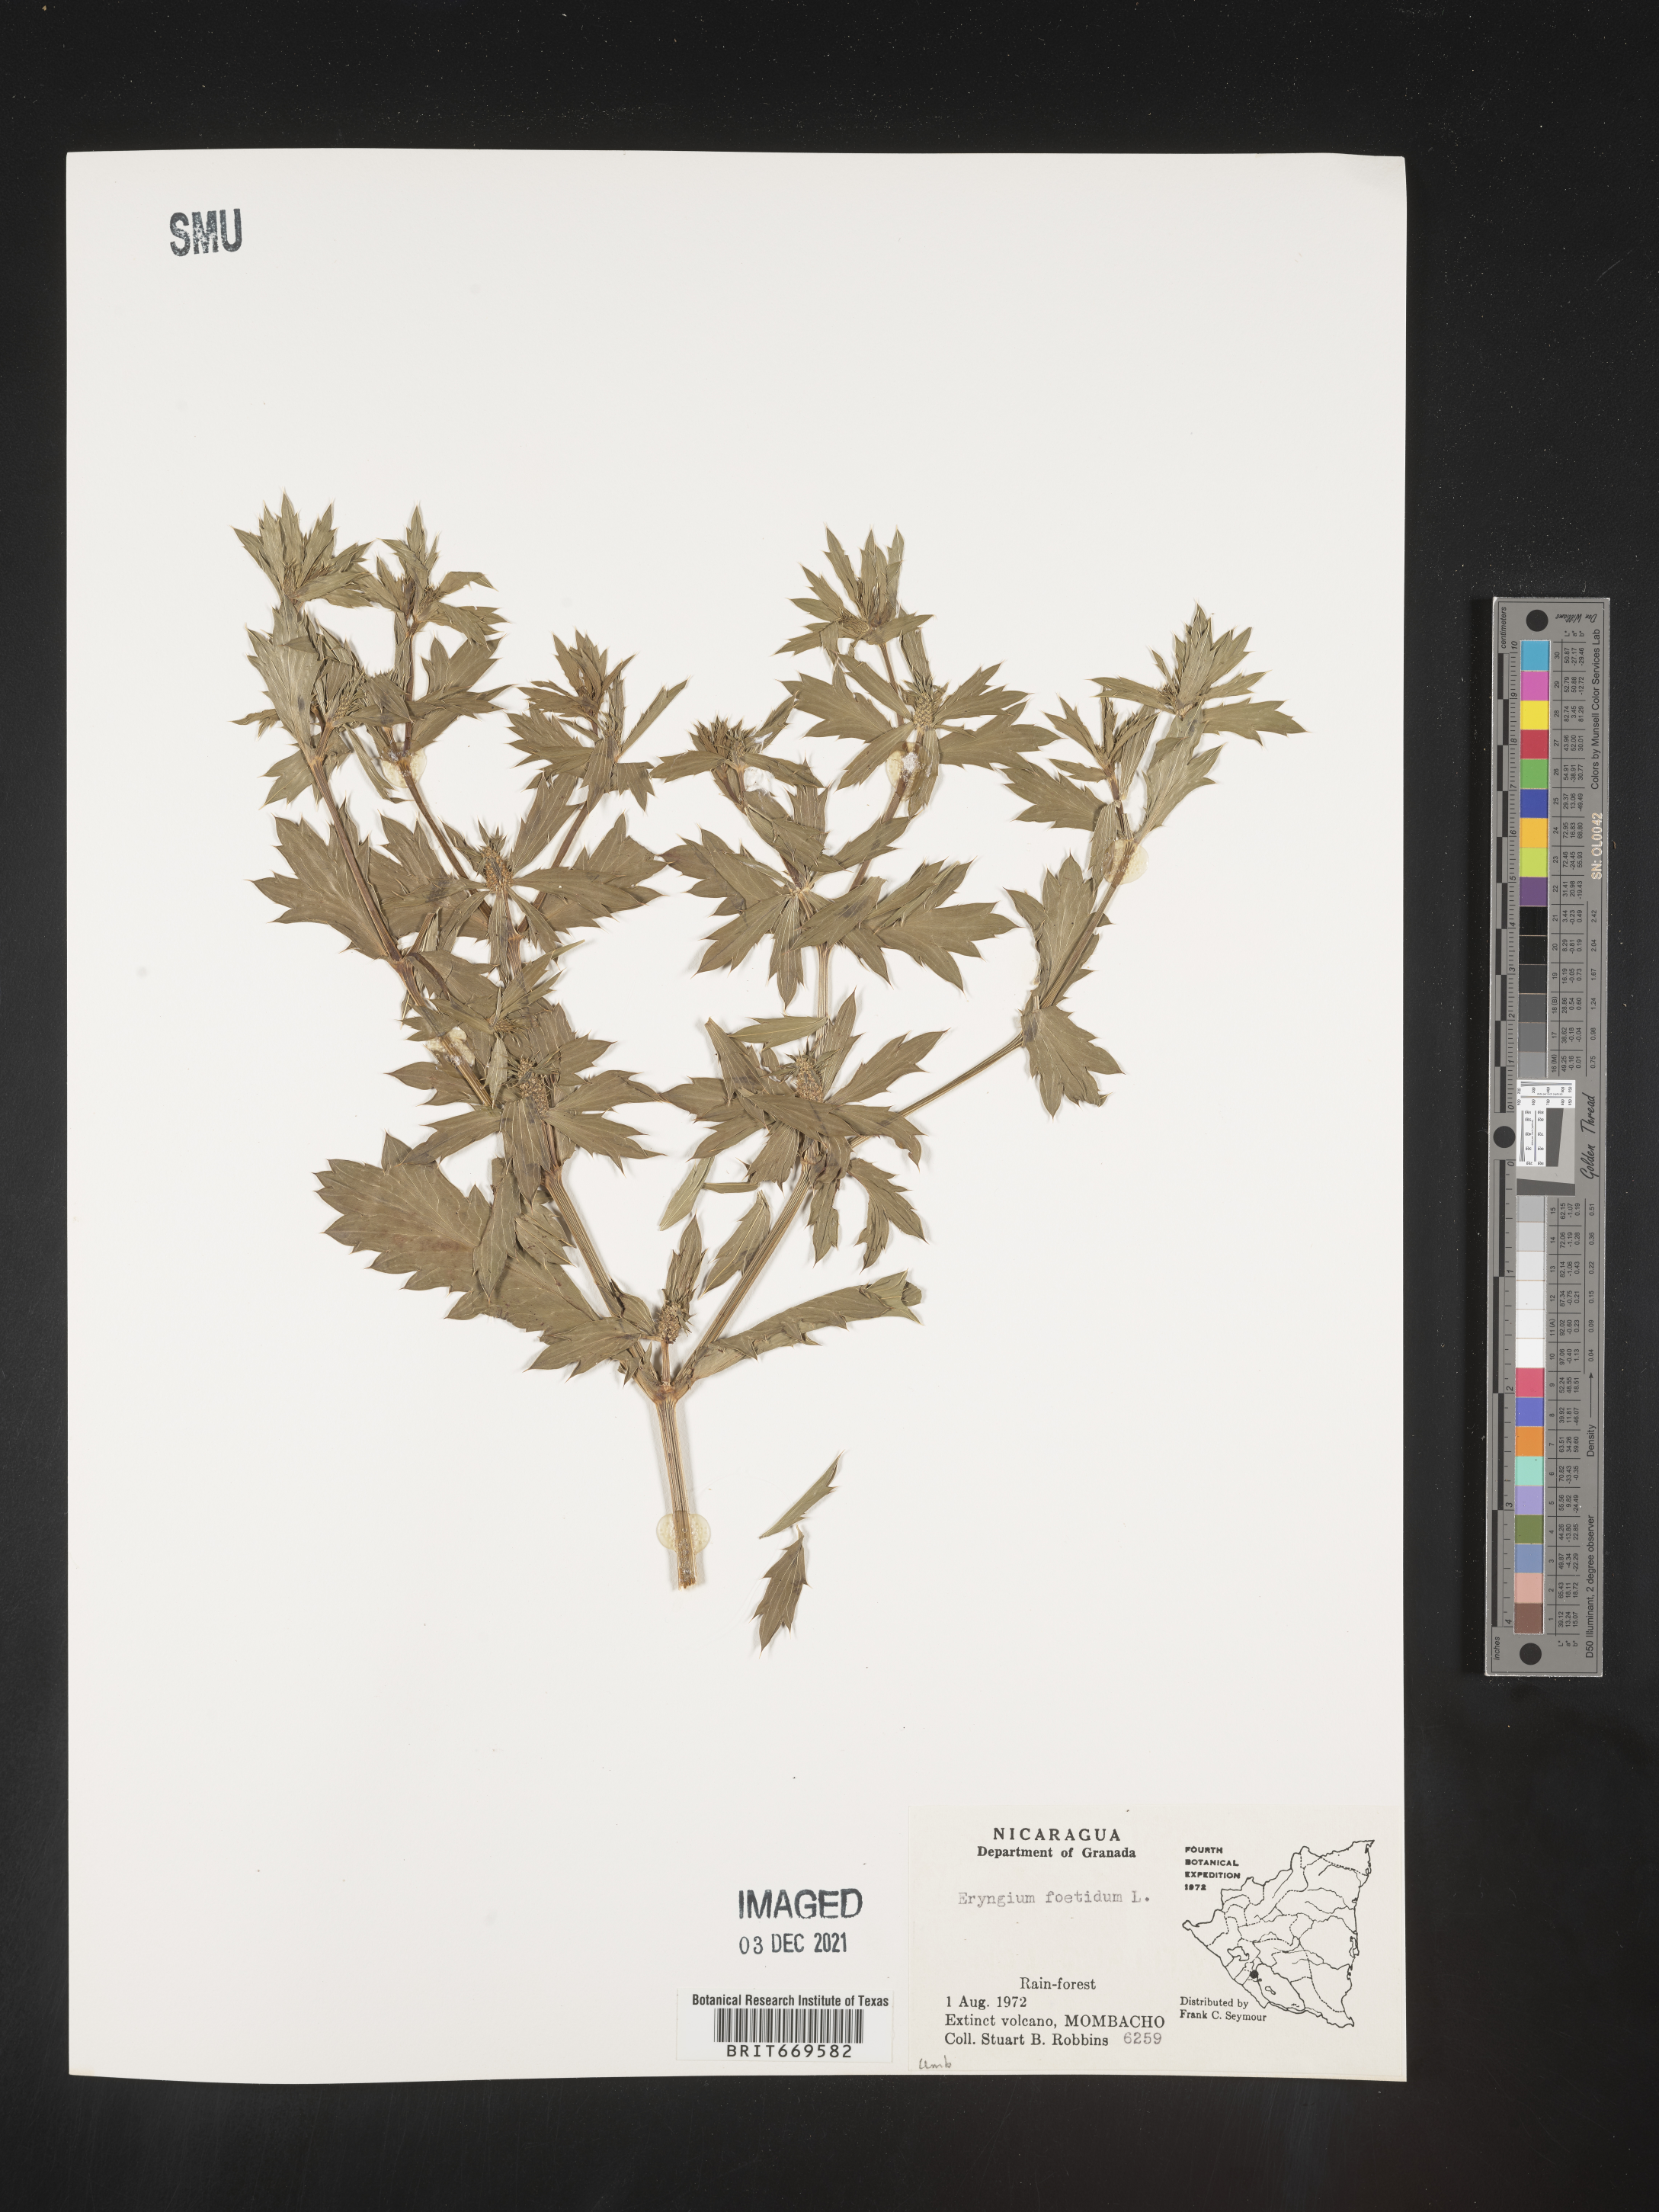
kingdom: Plantae
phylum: Tracheophyta
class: Magnoliopsida
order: Apiales
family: Apiaceae
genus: Eryngium
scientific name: Eryngium
